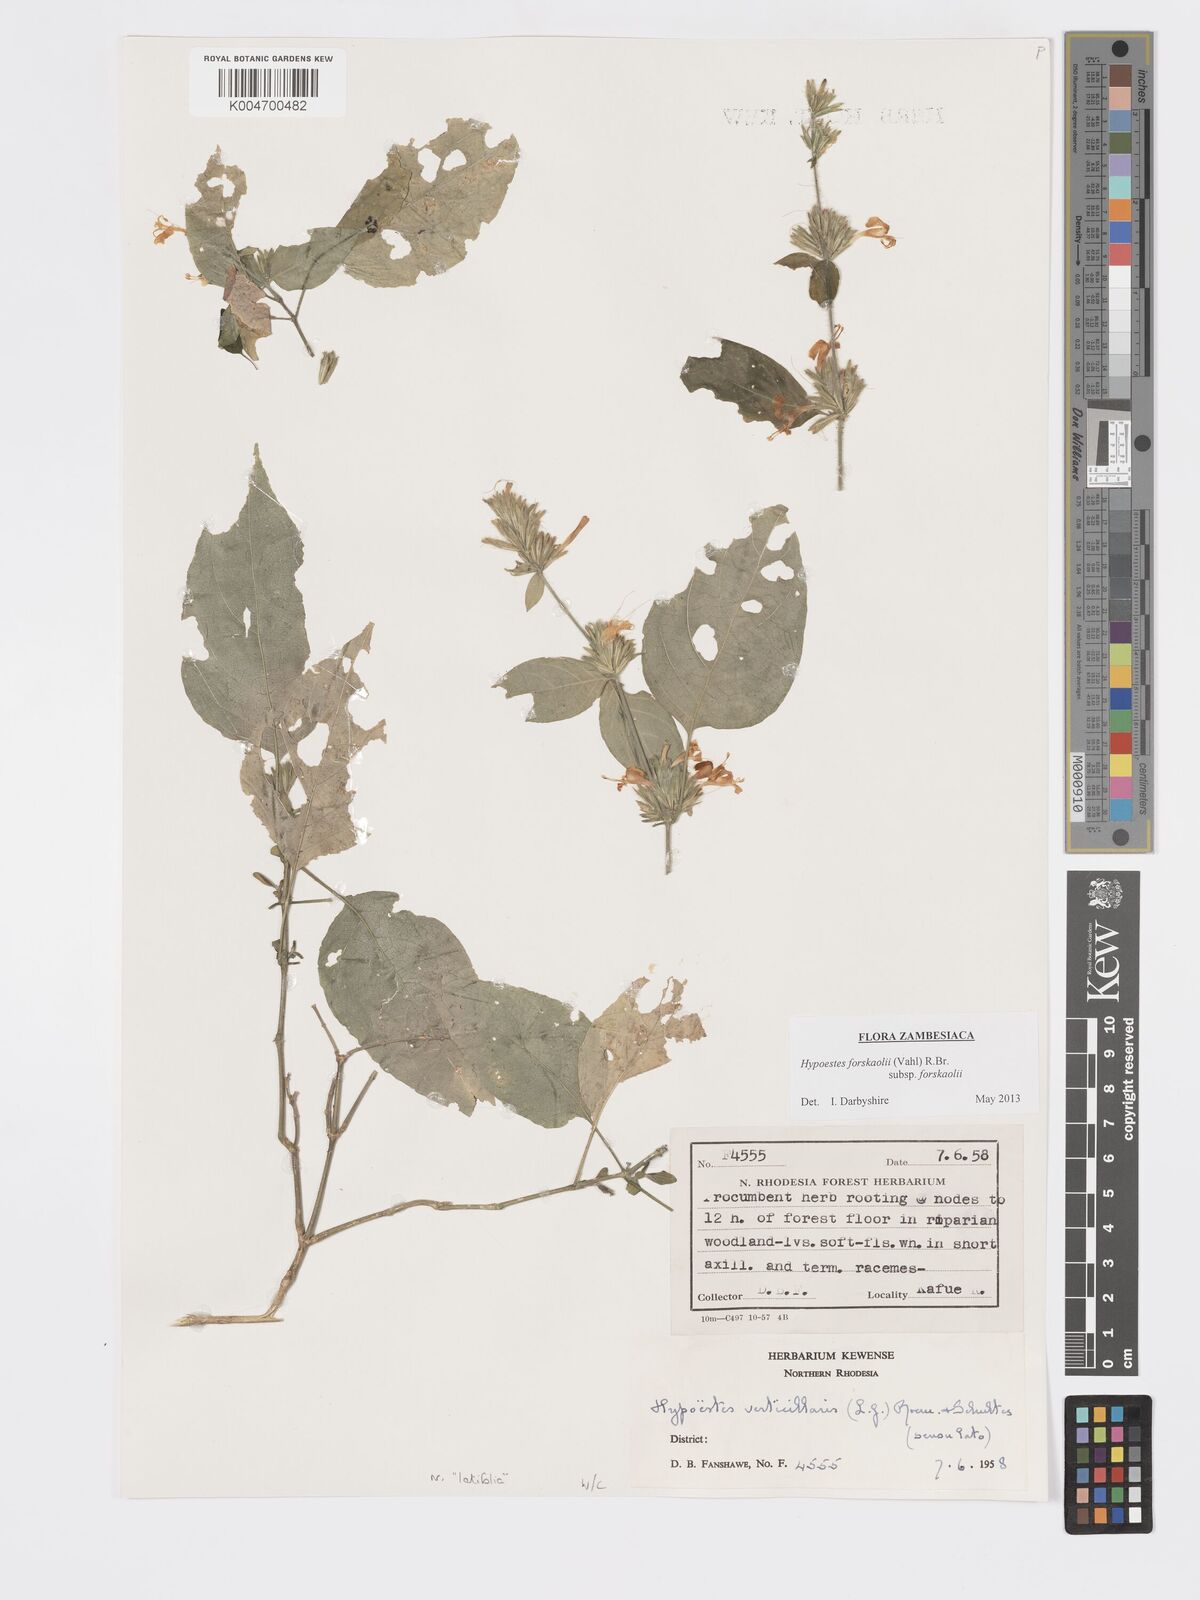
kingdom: Plantae
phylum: Tracheophyta
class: Magnoliopsida
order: Lamiales
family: Acanthaceae
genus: Hypoestes
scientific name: Hypoestes forskaolii
